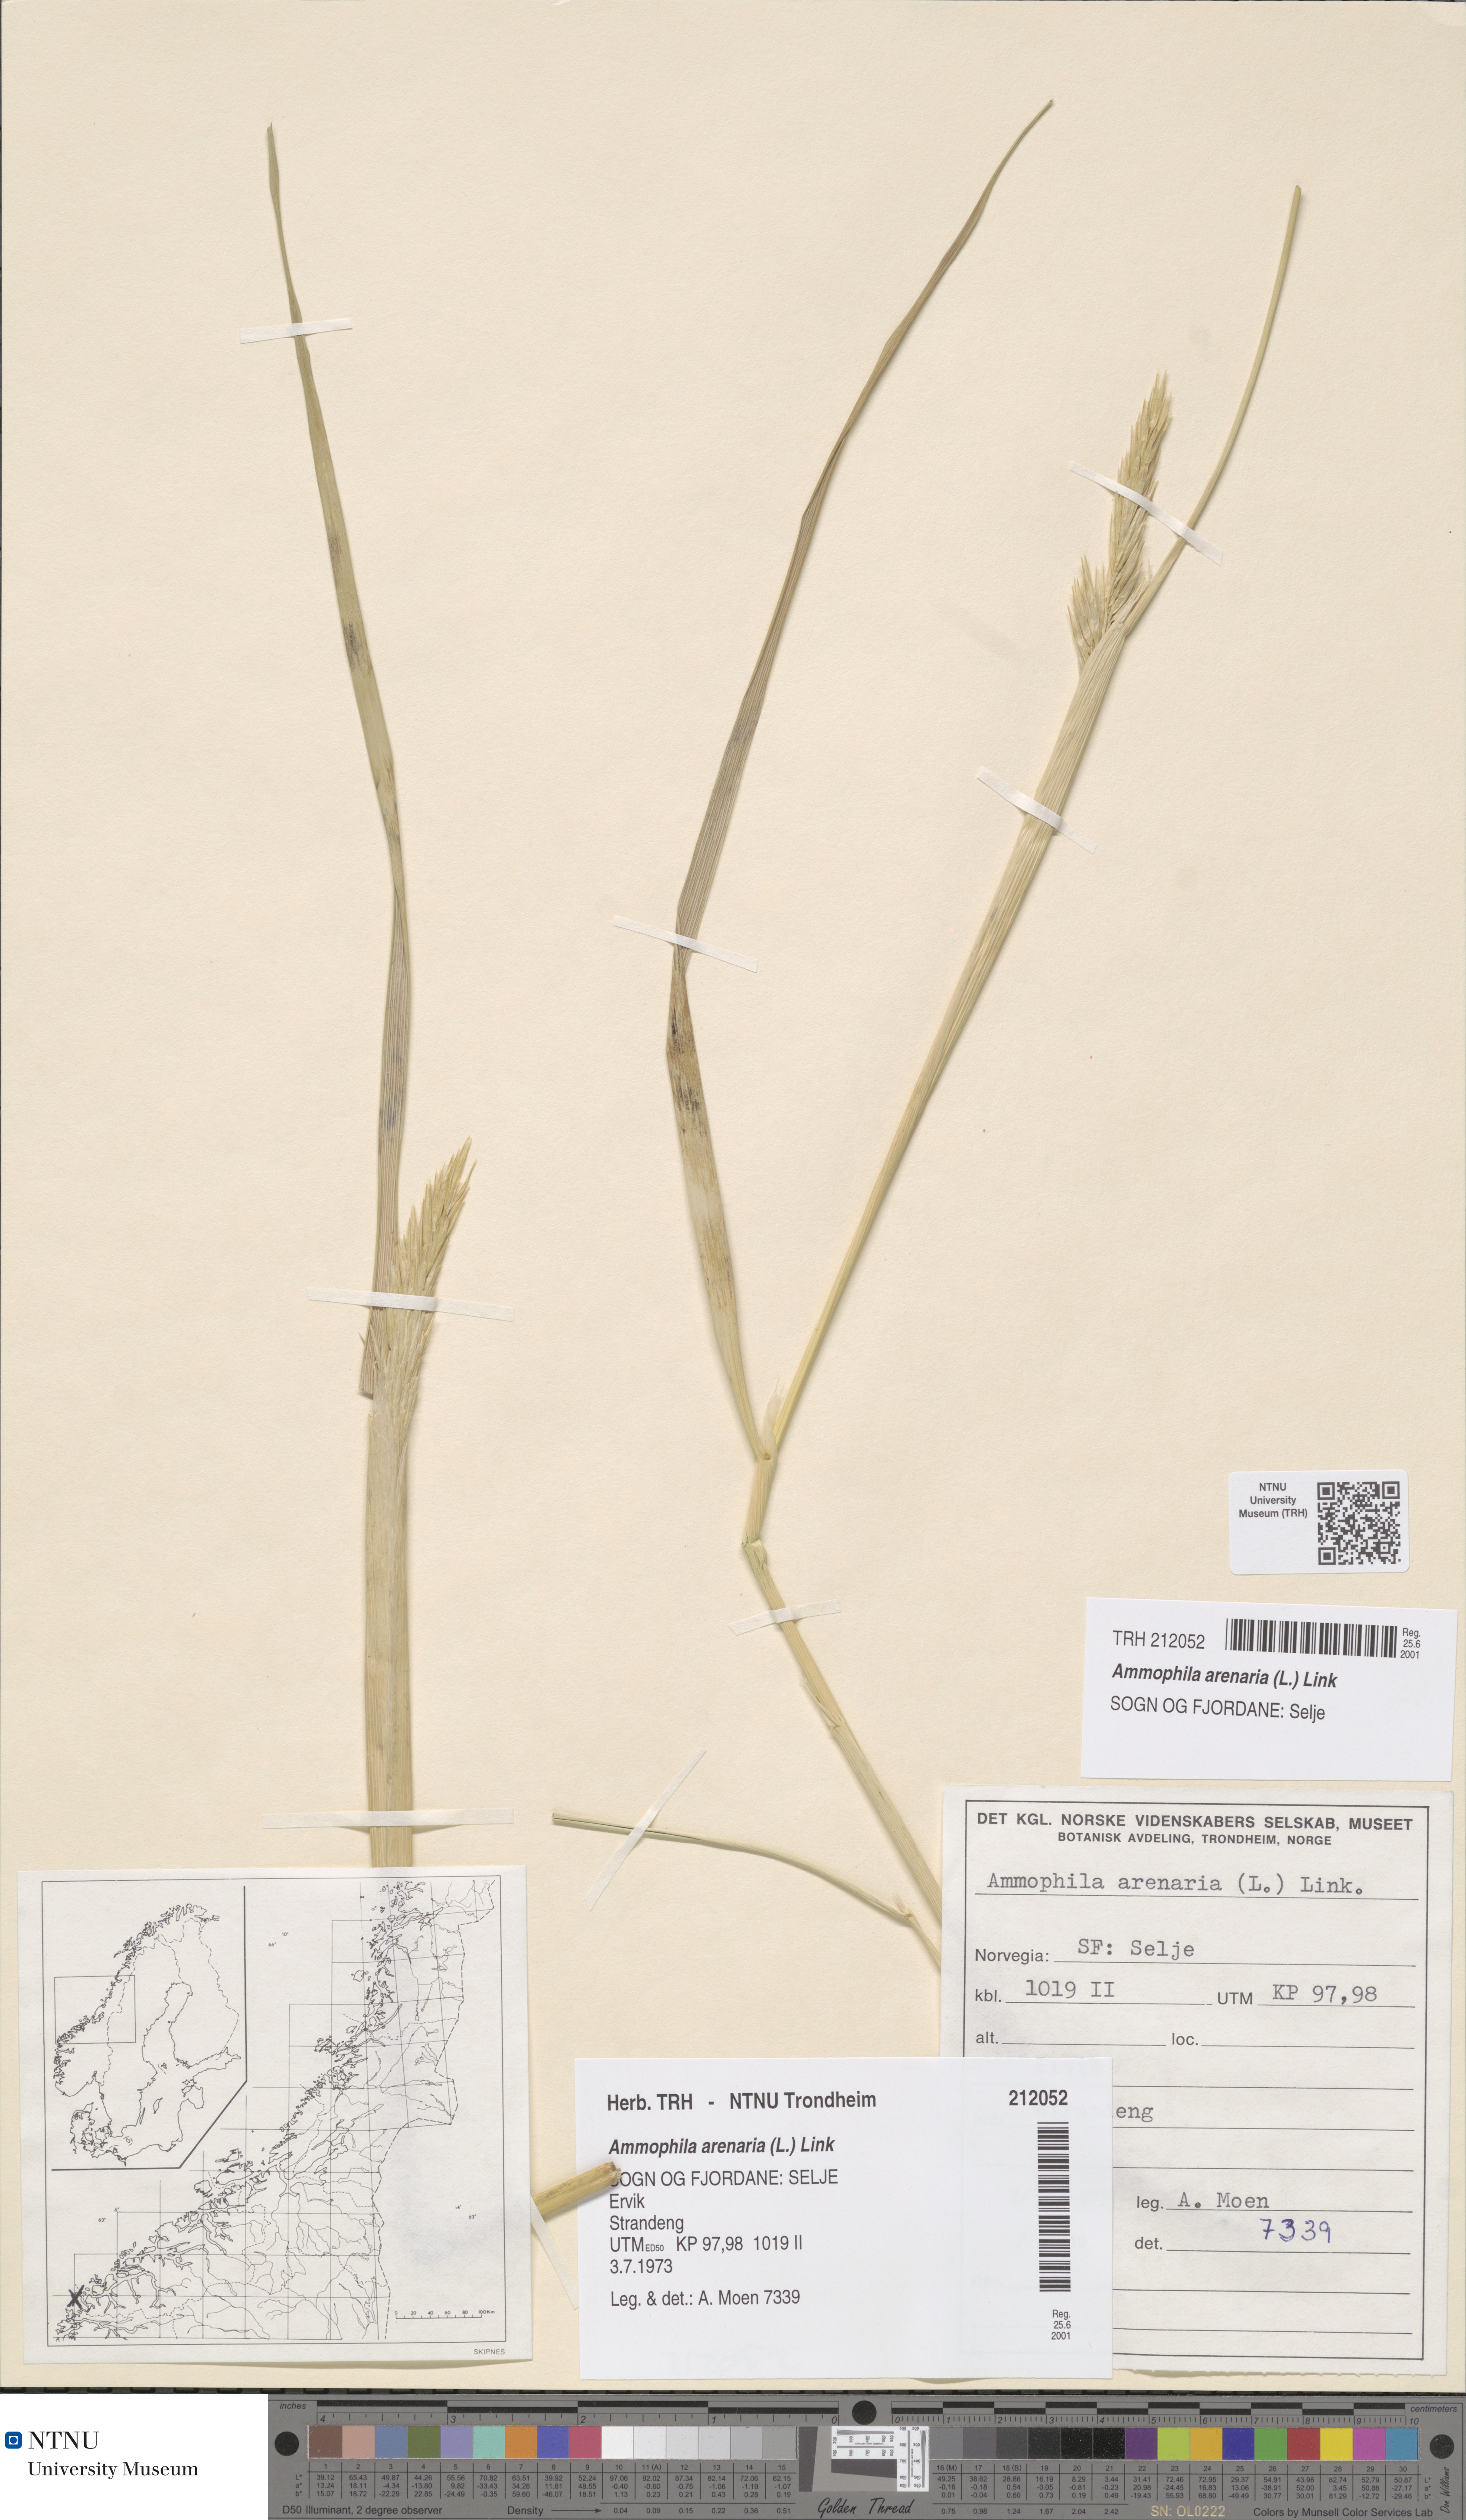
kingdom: Plantae
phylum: Tracheophyta
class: Liliopsida
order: Poales
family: Poaceae
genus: Calamagrostis
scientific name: Calamagrostis arenaria
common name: European beachgrass
